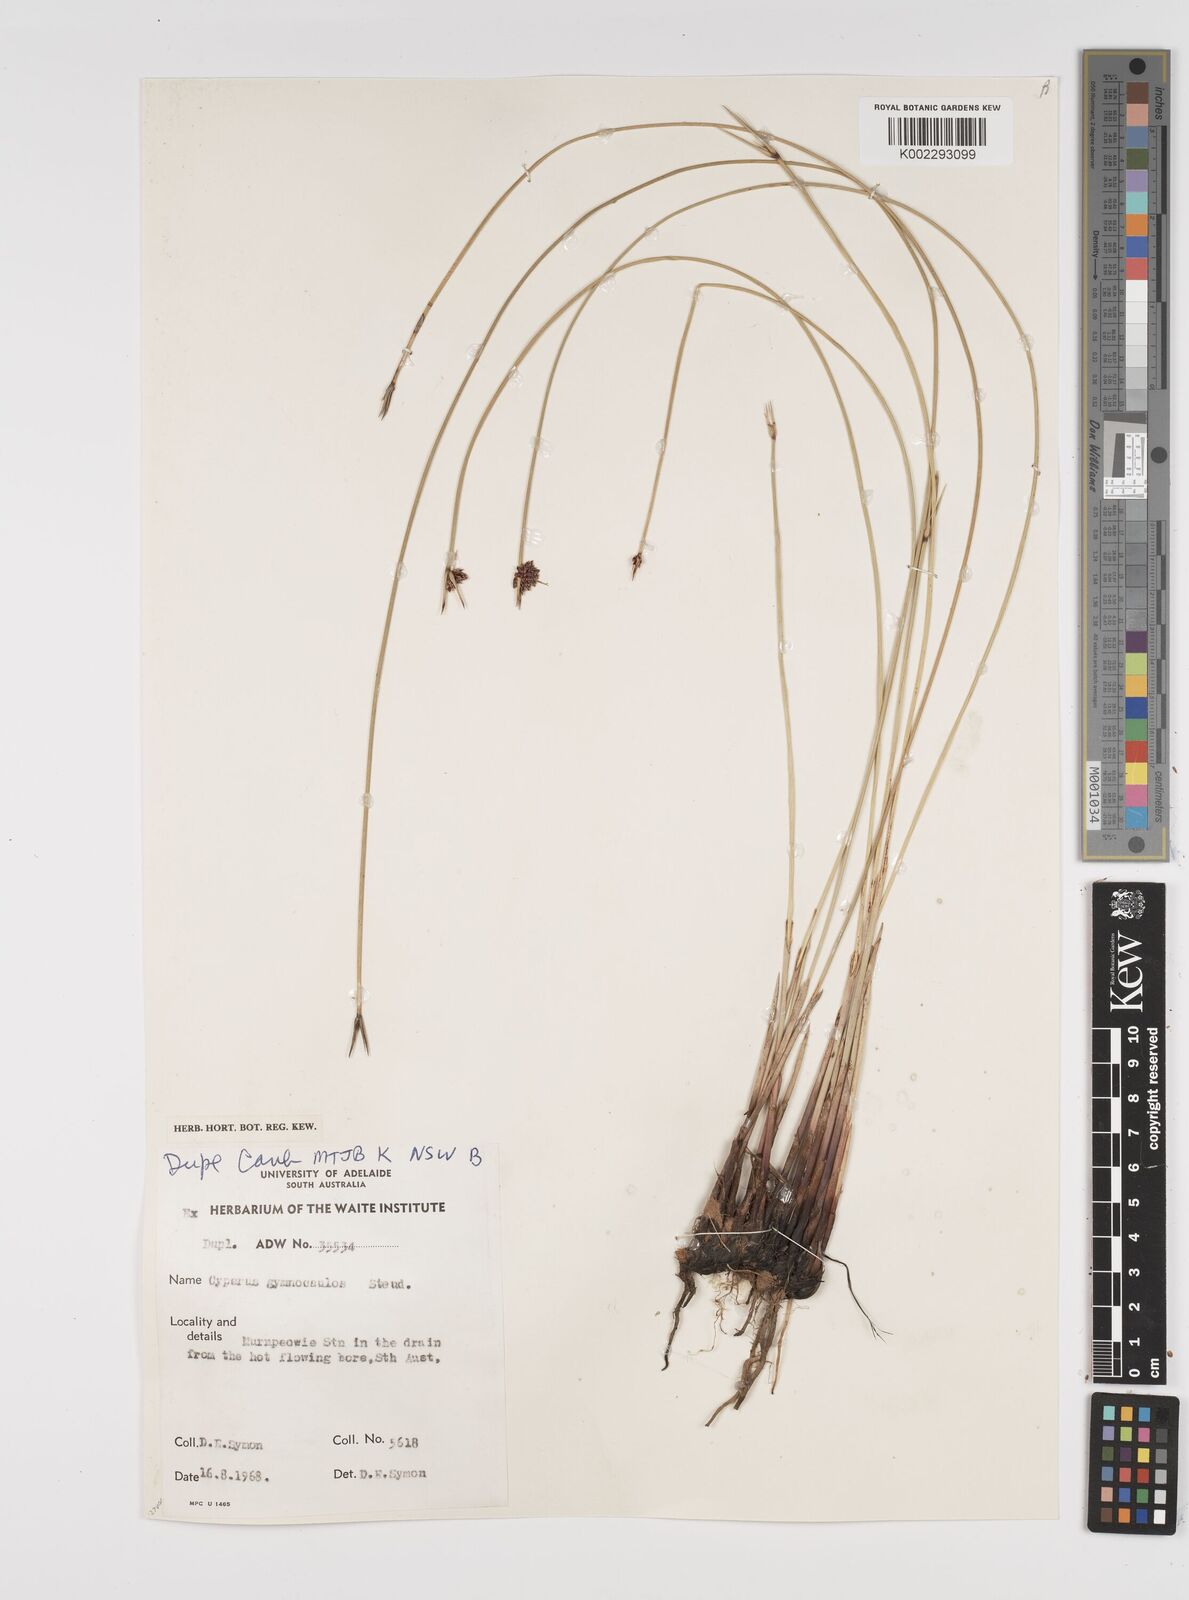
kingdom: Plantae
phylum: Tracheophyta
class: Liliopsida
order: Poales
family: Cyperaceae
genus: Cyperus
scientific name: Cyperus gymnocaulos
